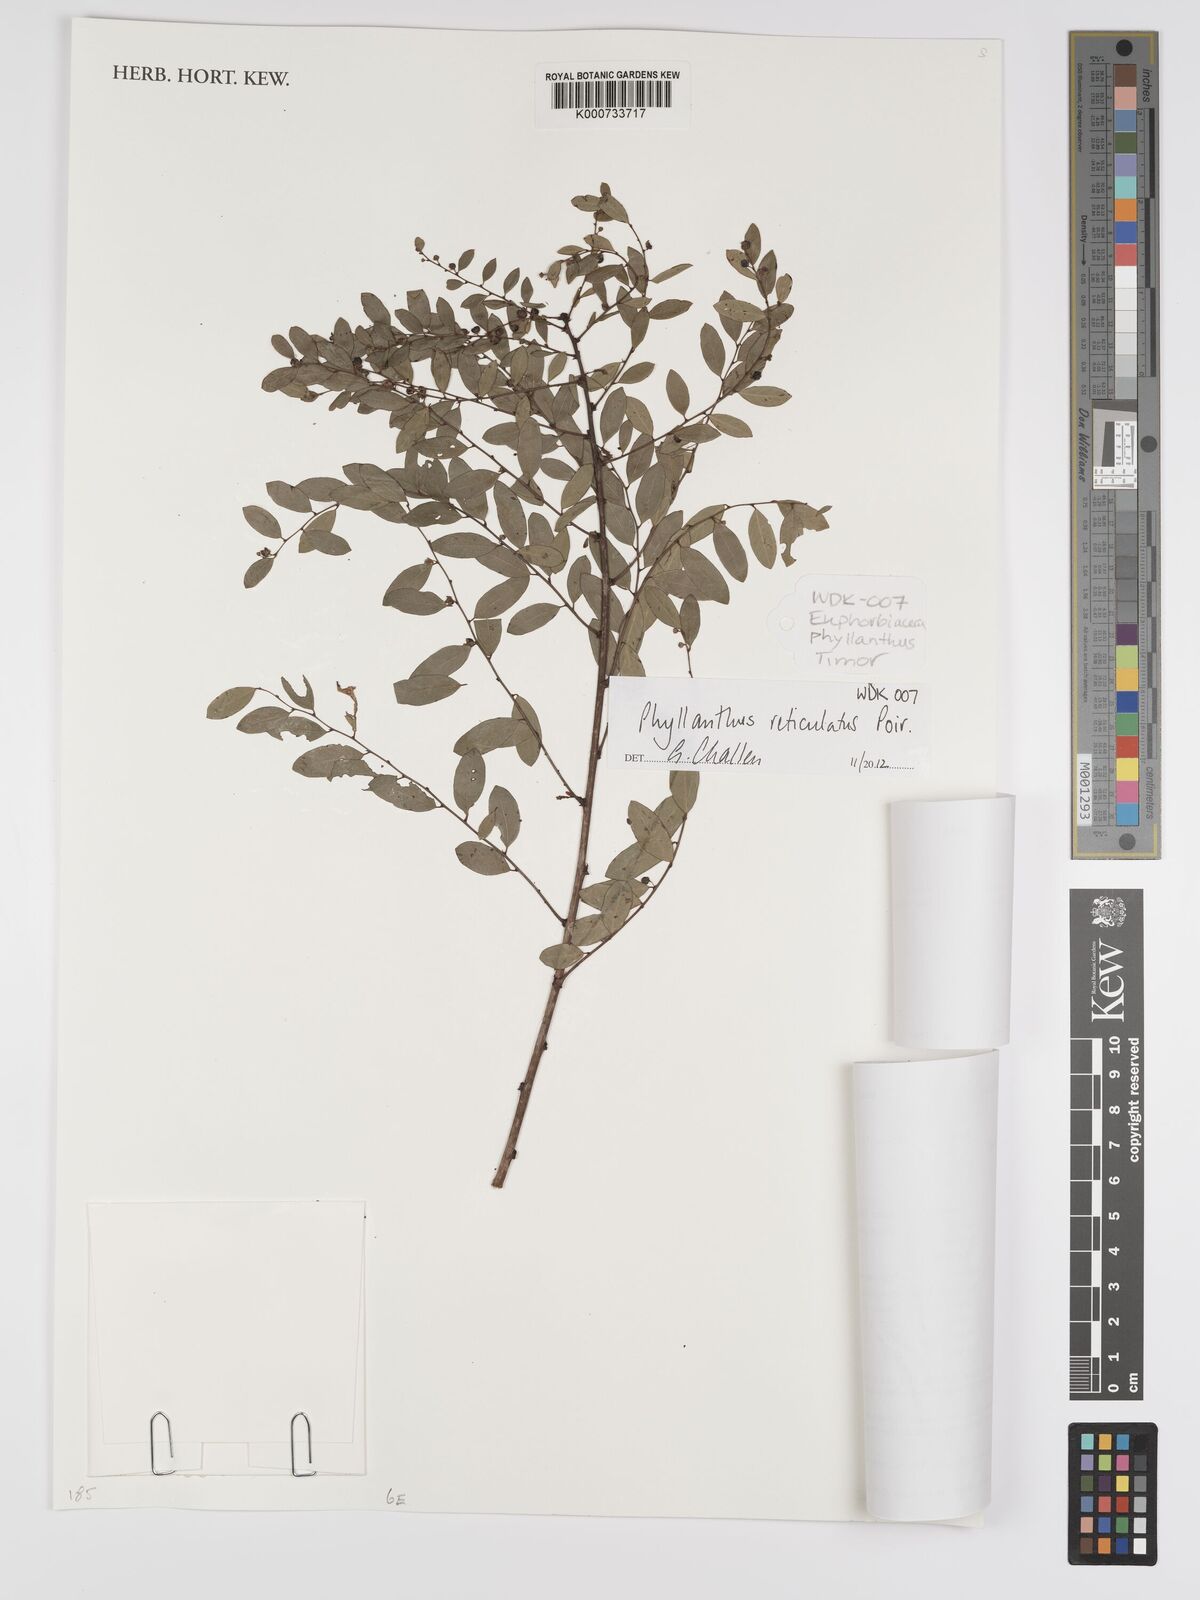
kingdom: Plantae
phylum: Tracheophyta
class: Magnoliopsida
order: Malpighiales
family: Phyllanthaceae
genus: Phyllanthus
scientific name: Phyllanthus reticulatus
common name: Potato bush
